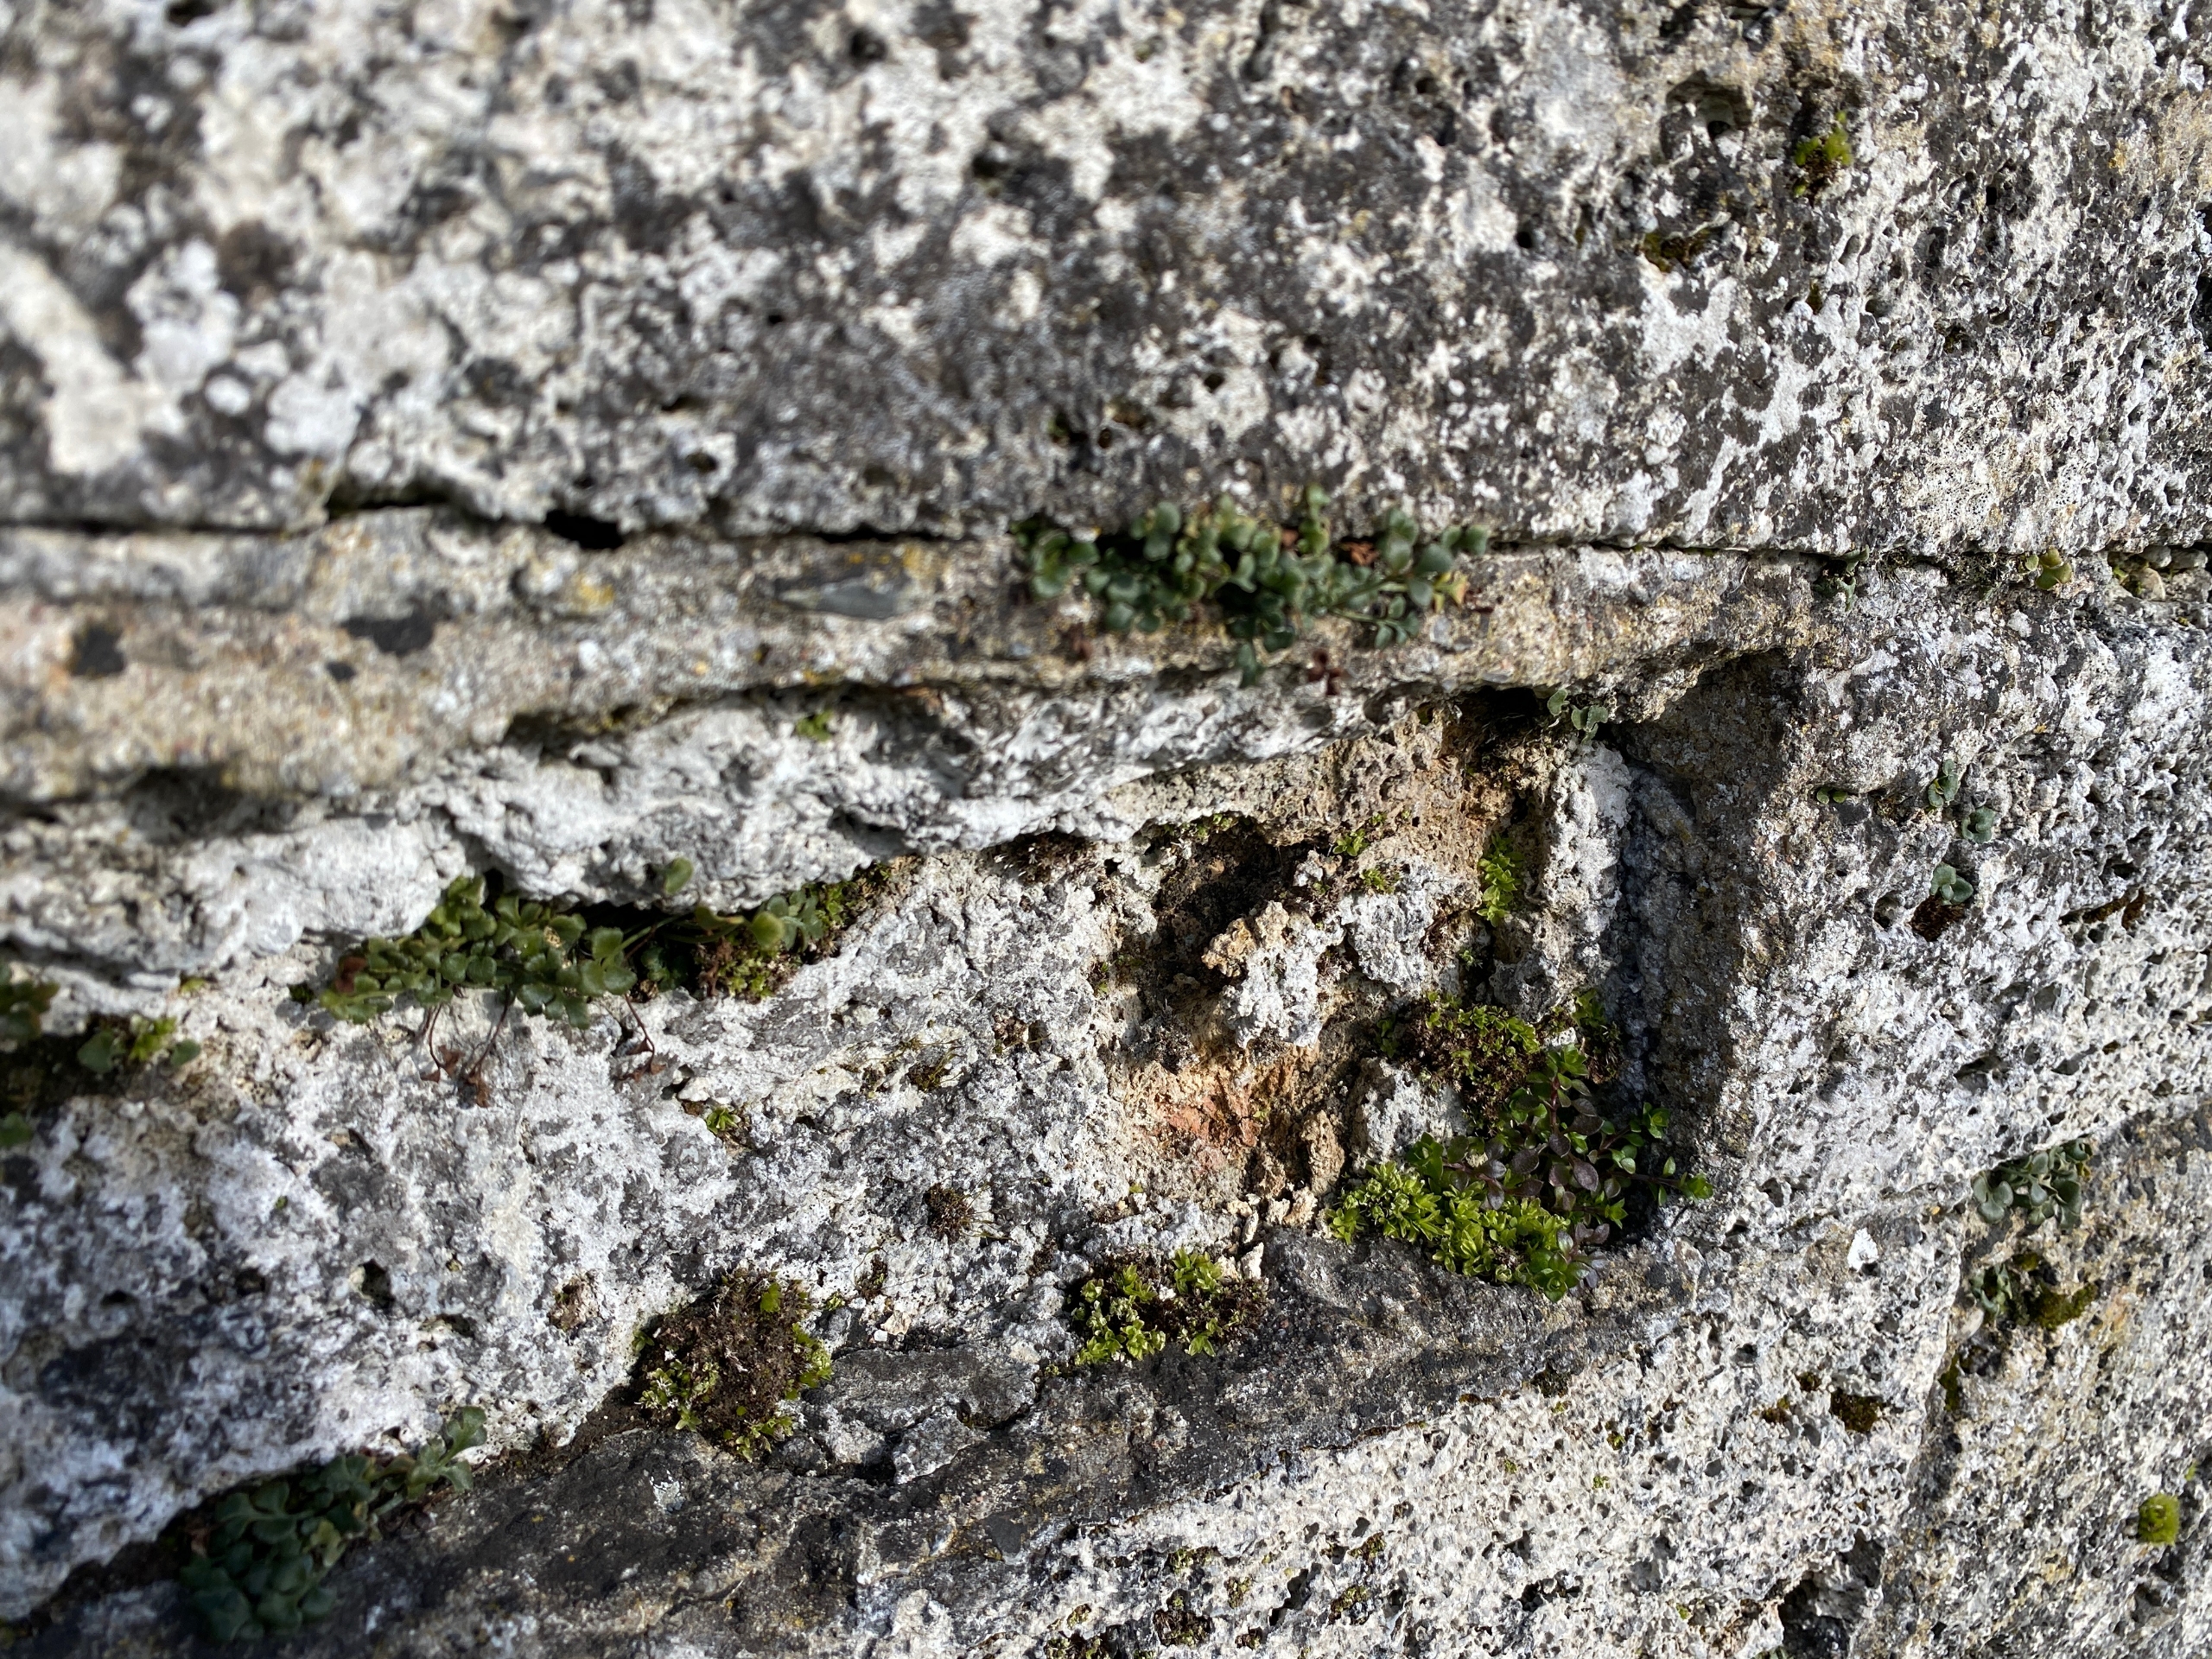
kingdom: Plantae
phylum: Bryophyta
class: Bryopsida
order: Encalyptales
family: Encalyptaceae
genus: Encalypta
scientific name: Encalypta streptocarpa
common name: Stor klokkehætte
